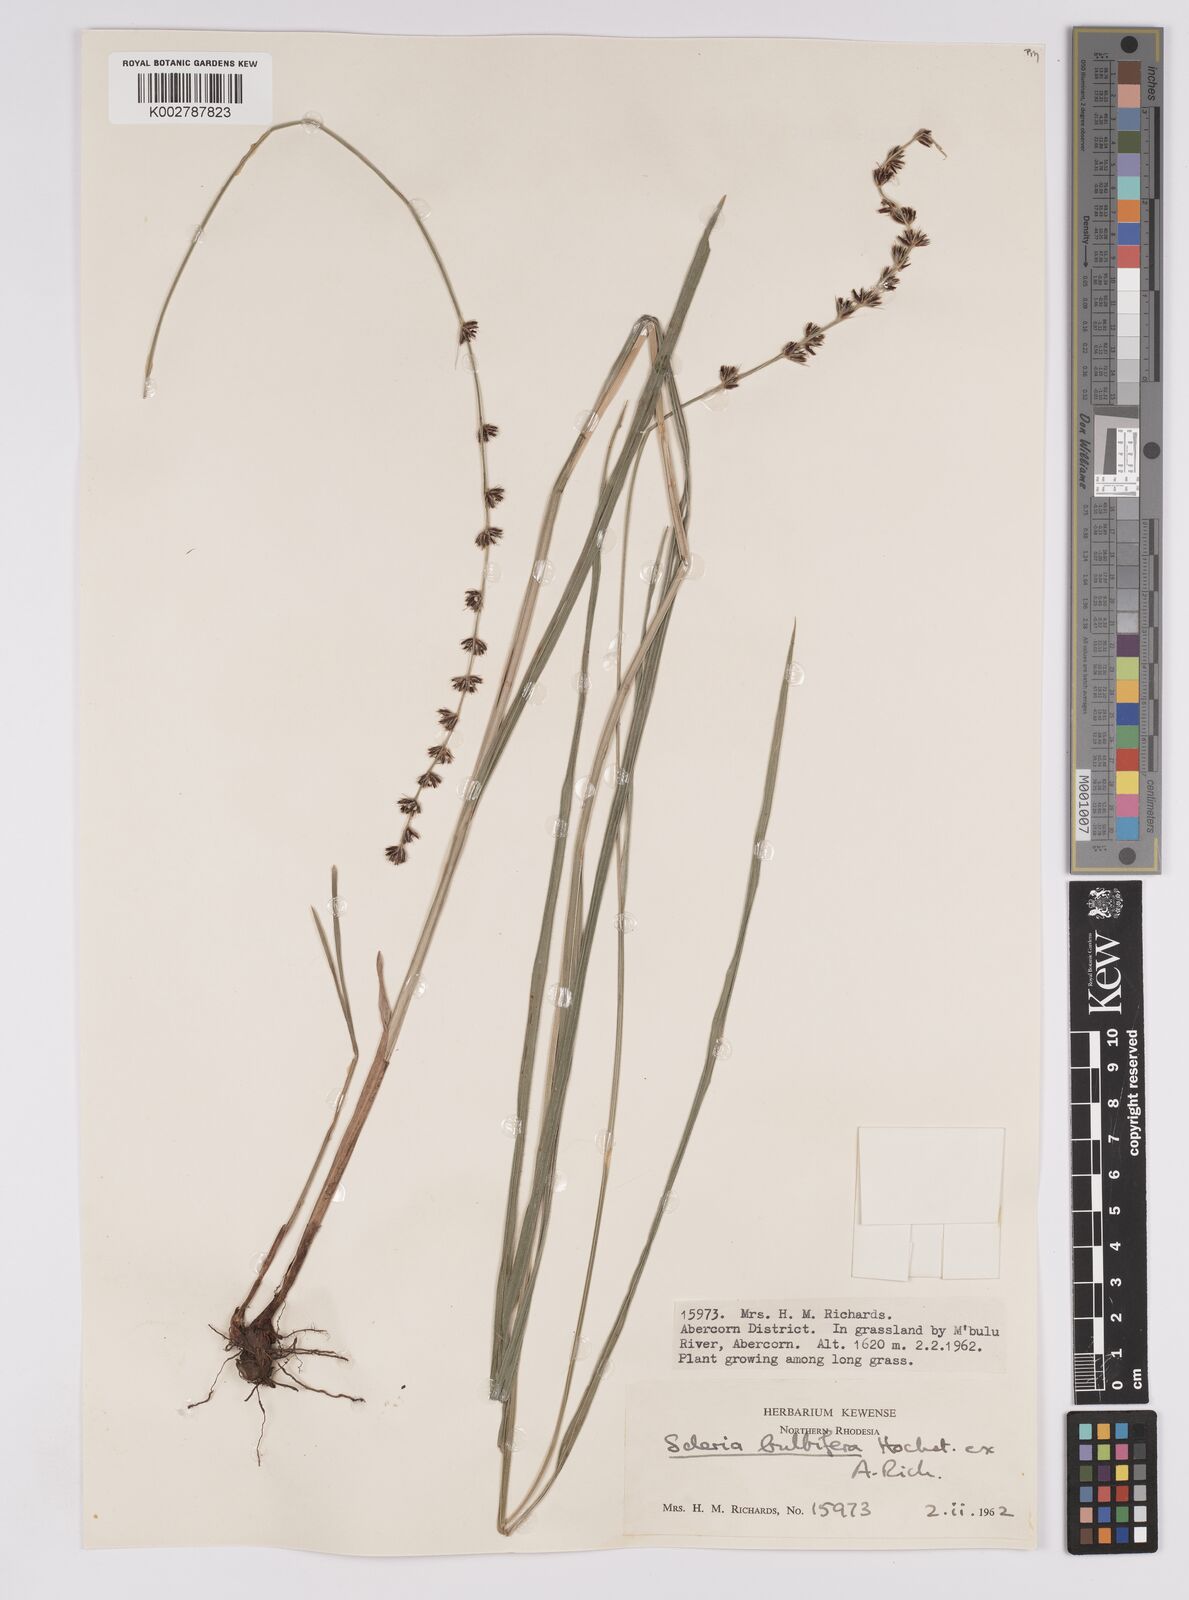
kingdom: Plantae
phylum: Tracheophyta
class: Liliopsida
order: Poales
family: Cyperaceae
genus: Scleria
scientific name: Scleria bulbifera
